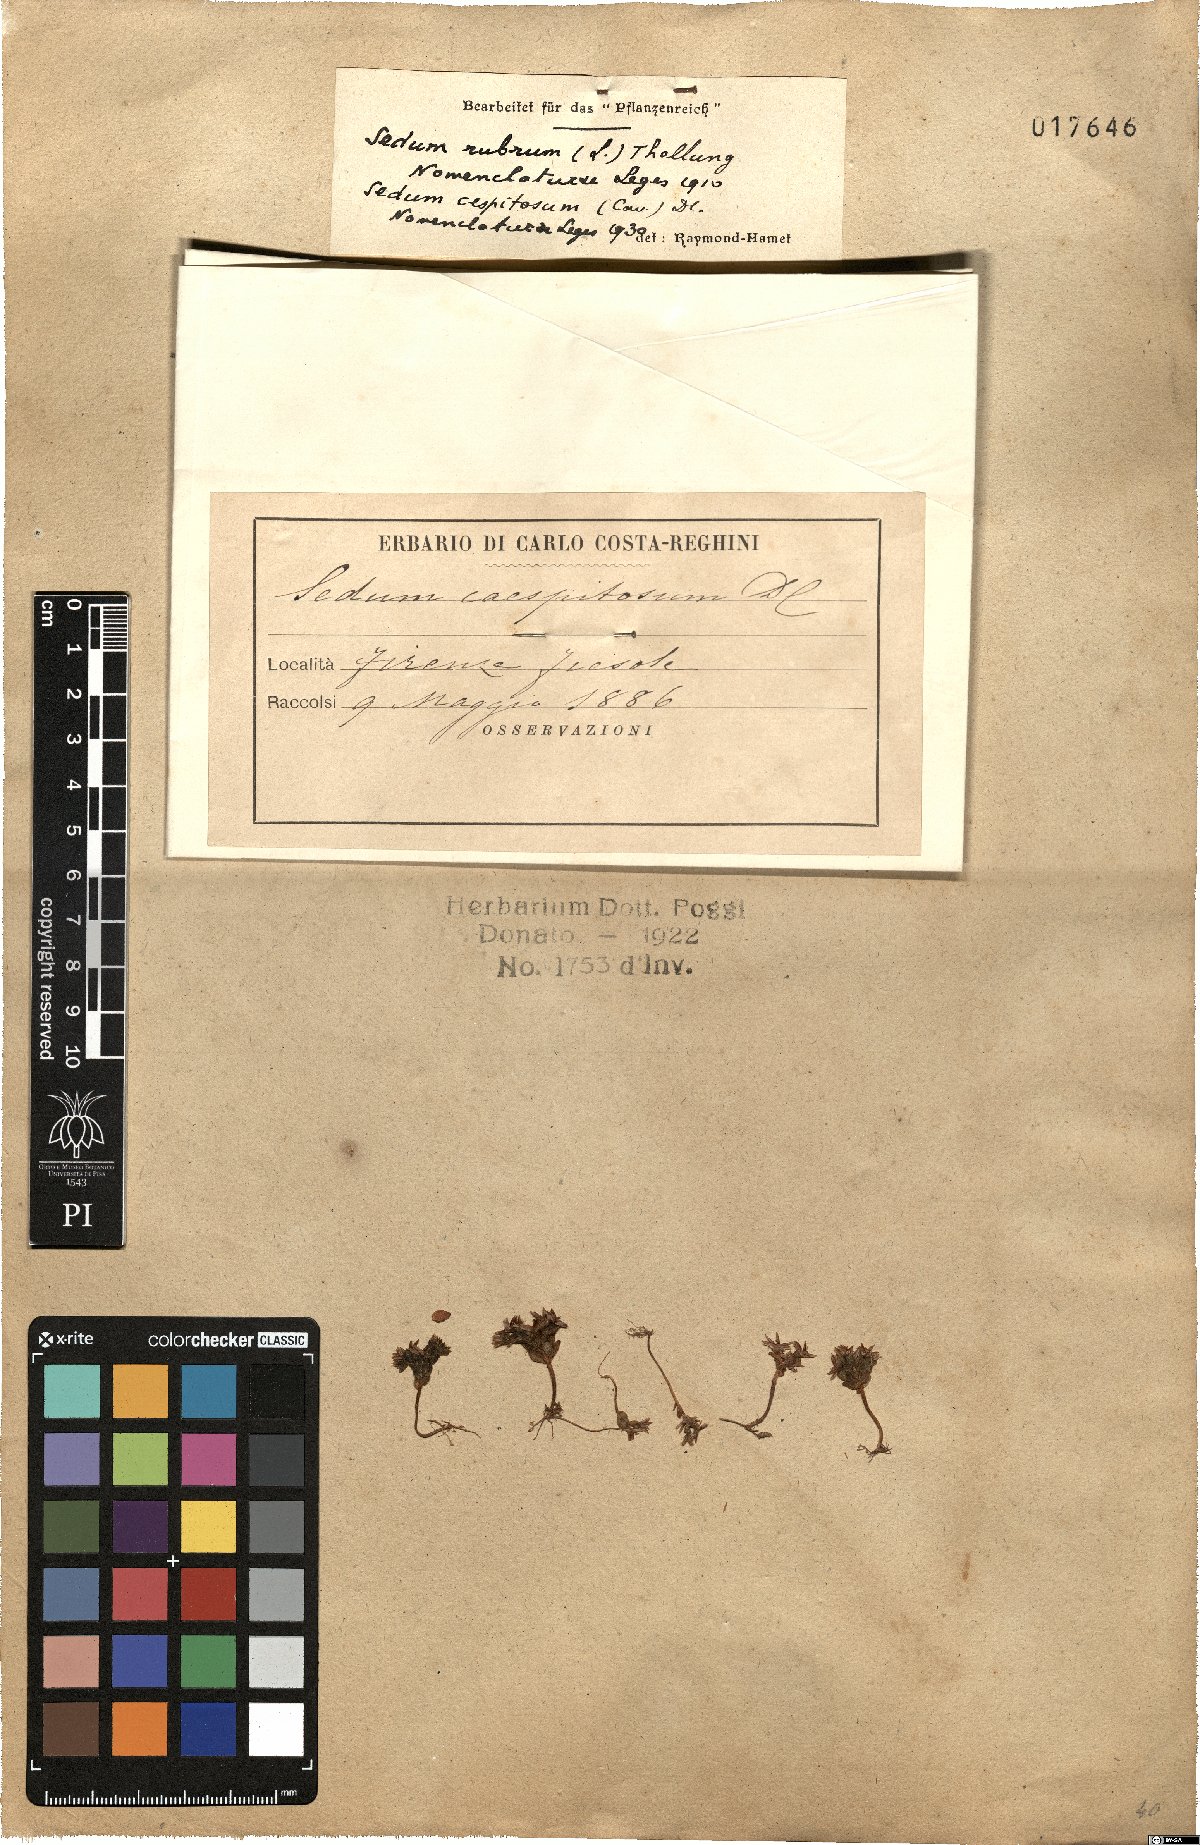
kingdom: Plantae
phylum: Tracheophyta
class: Magnoliopsida
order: Saxifragales
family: Crassulaceae
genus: Sedum
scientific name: Sedum cespitosum
